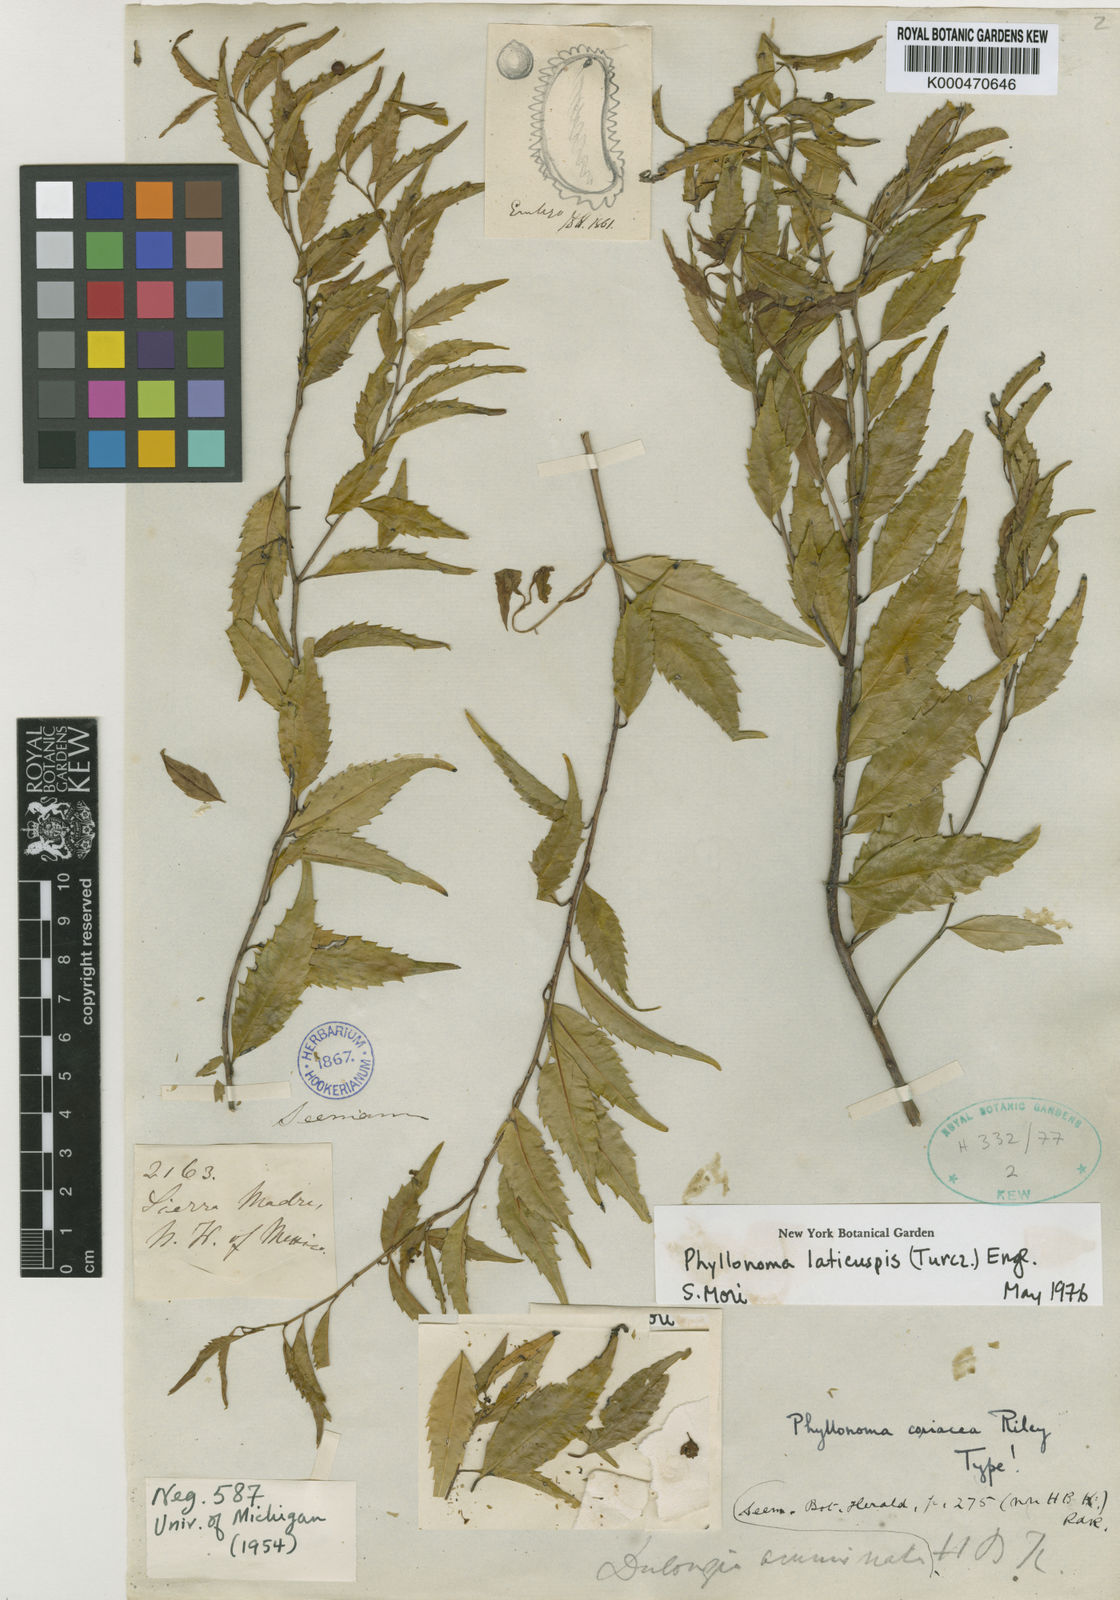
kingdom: Plantae
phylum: Tracheophyta
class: Magnoliopsida
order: Aquifoliales
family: Phyllonomaceae
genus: Phyllonoma
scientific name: Phyllonoma laticuspis
